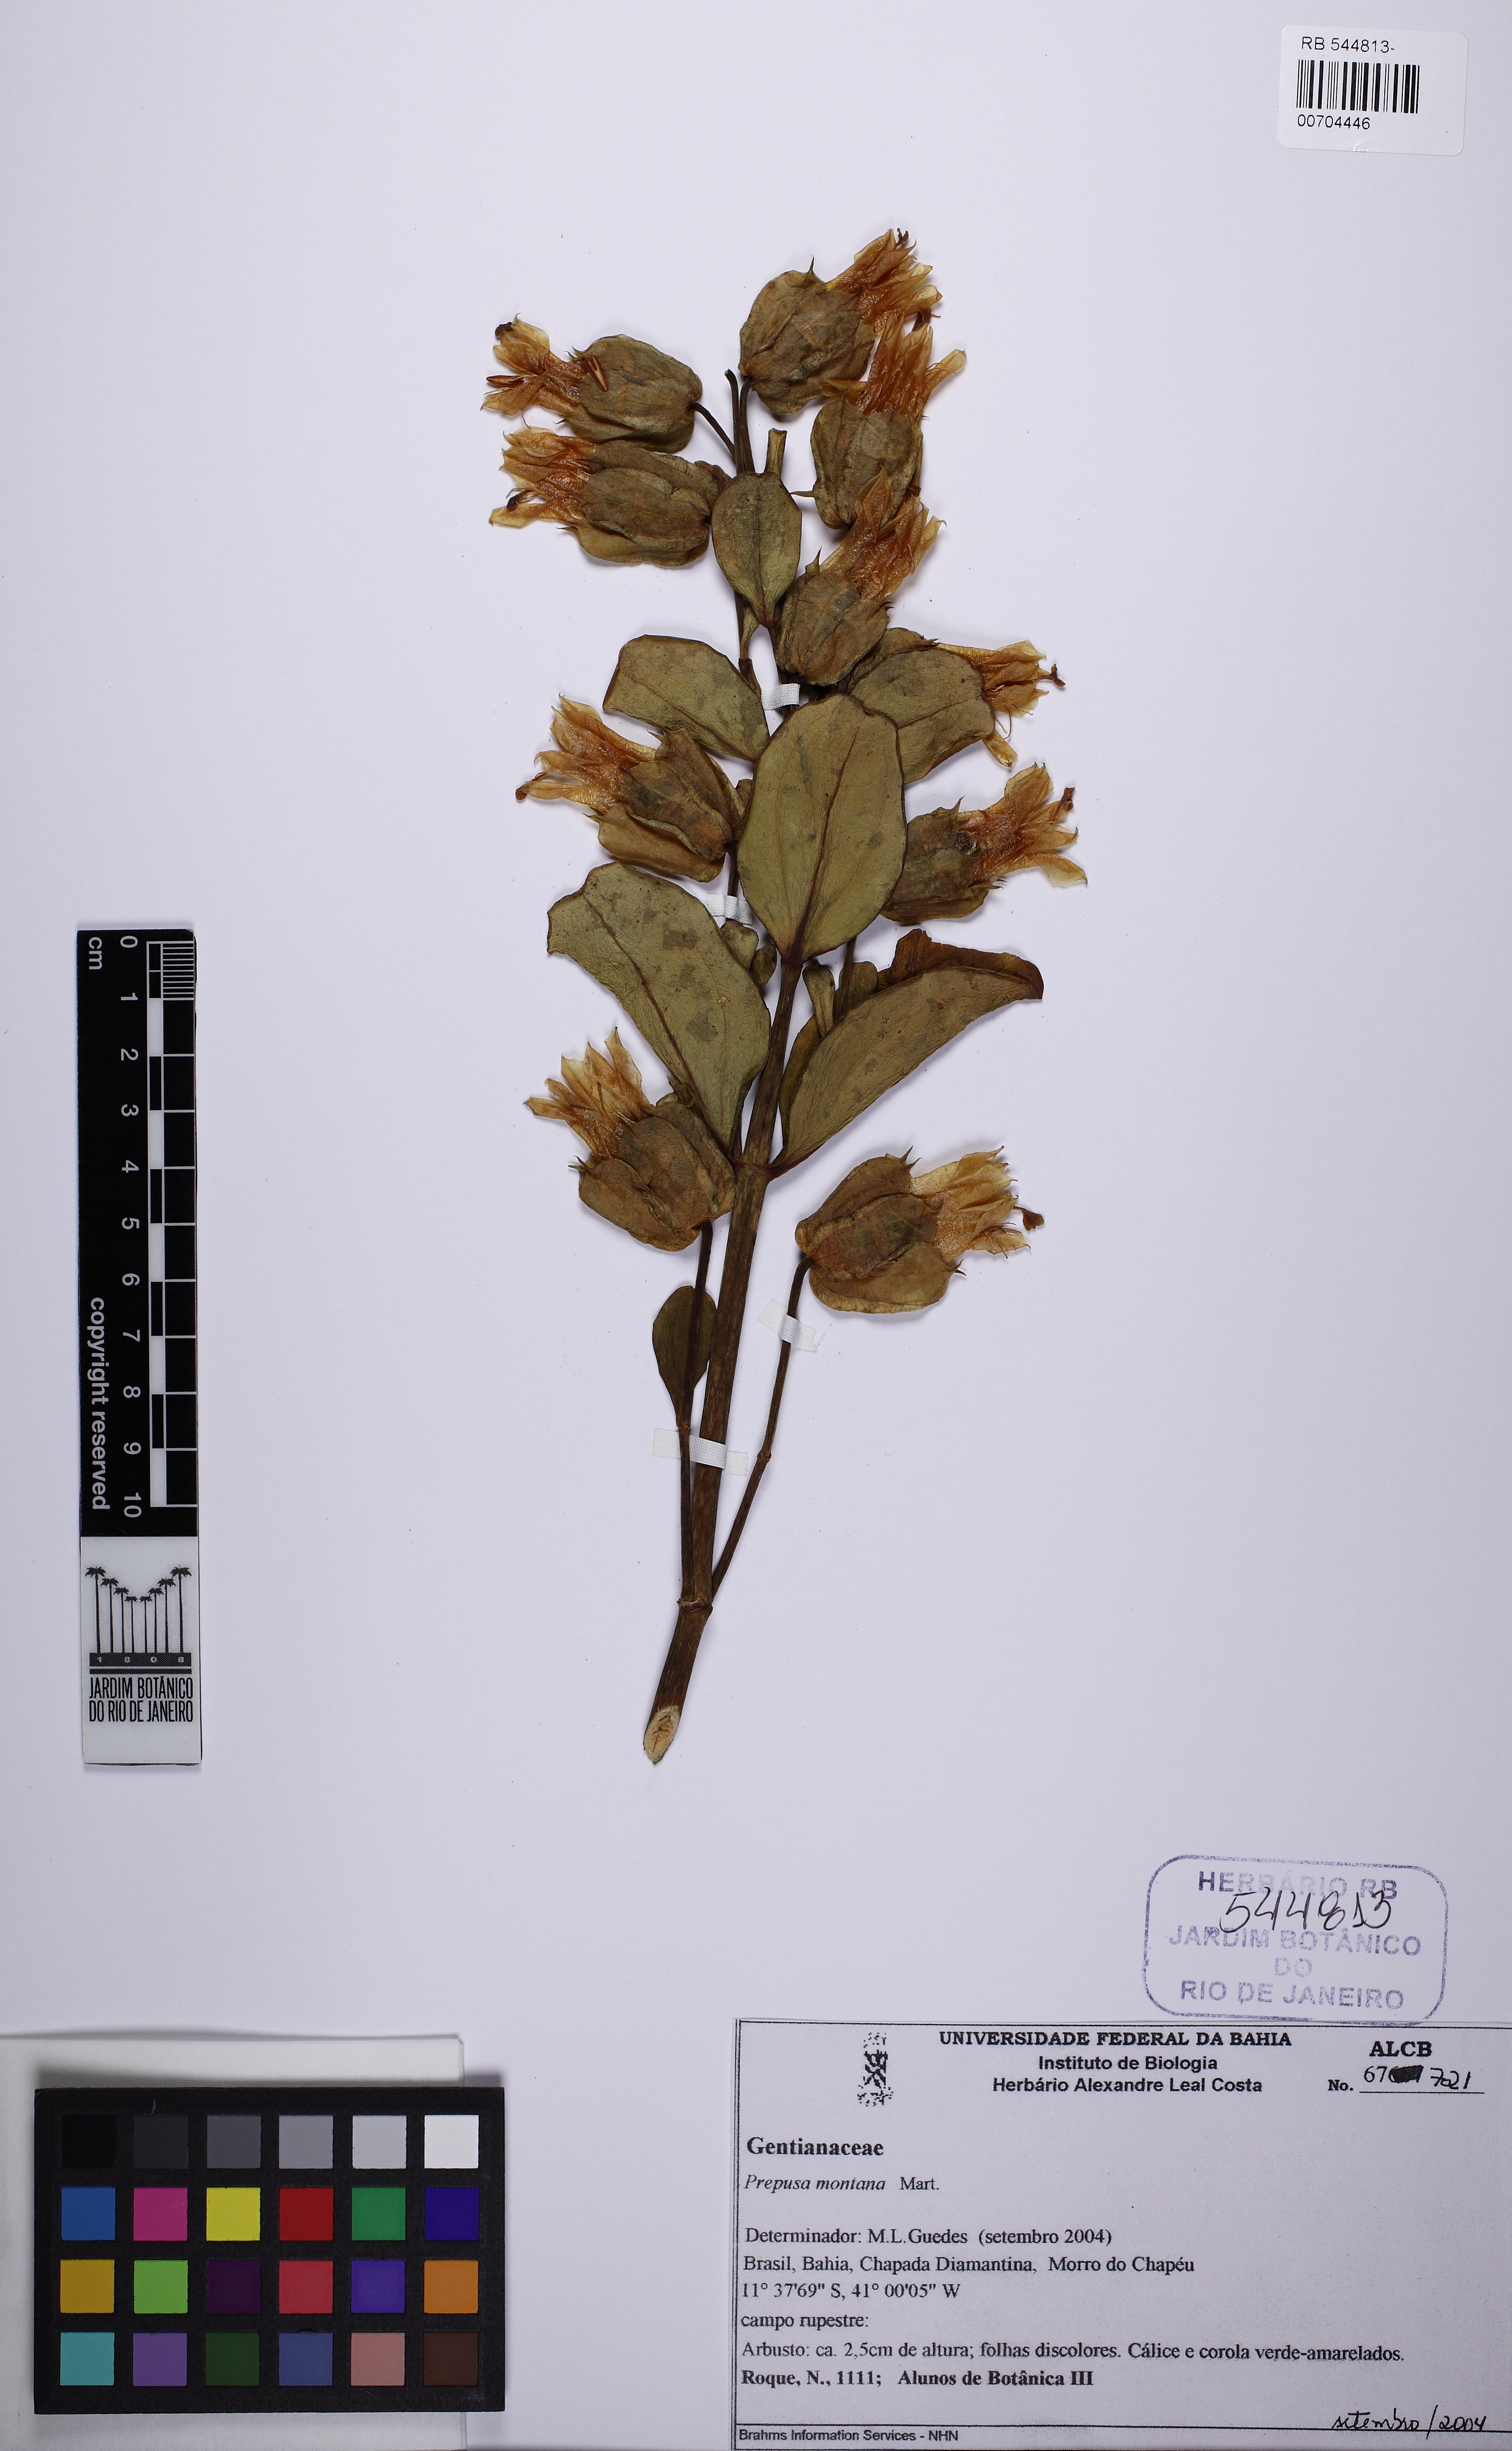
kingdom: Plantae
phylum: Tracheophyta
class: Magnoliopsida
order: Gentianales
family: Gentianaceae
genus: Prepusa
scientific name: Prepusa montana
